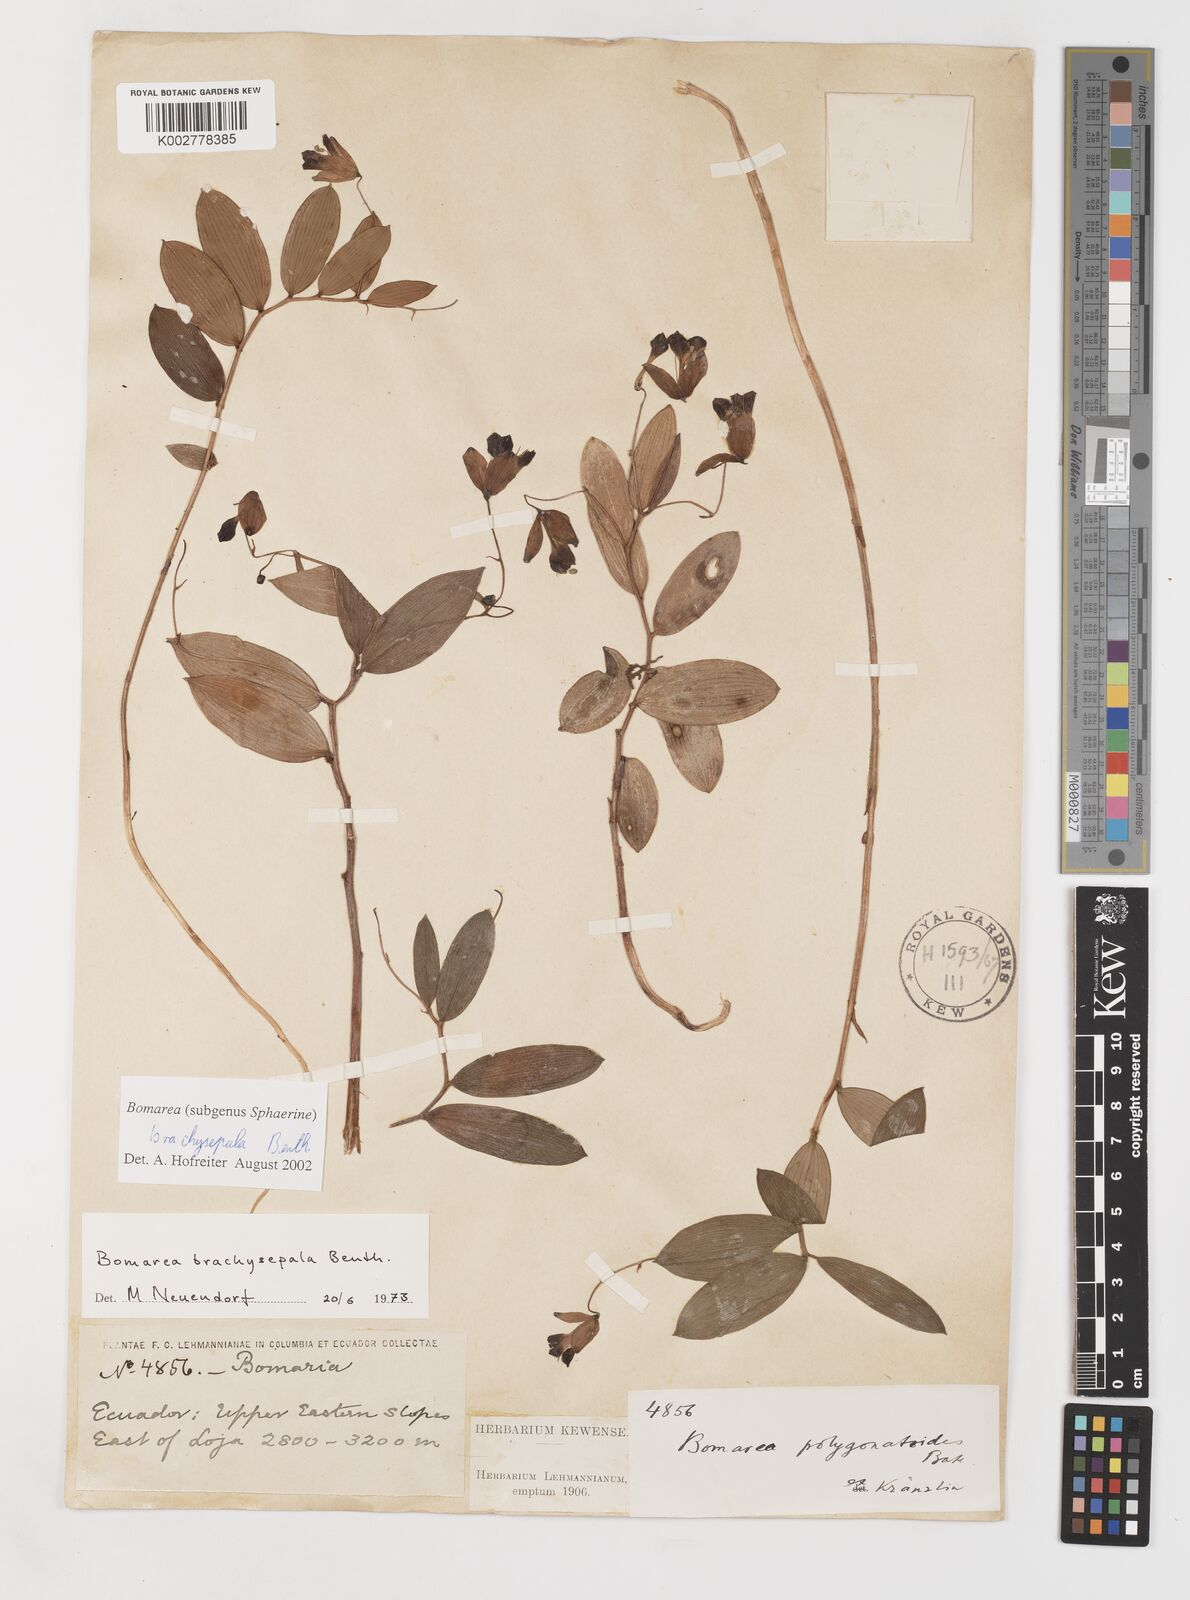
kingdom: Plantae
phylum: Tracheophyta
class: Liliopsida
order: Liliales
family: Alstroemeriaceae
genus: Bomarea
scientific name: Bomarea brachysepala
